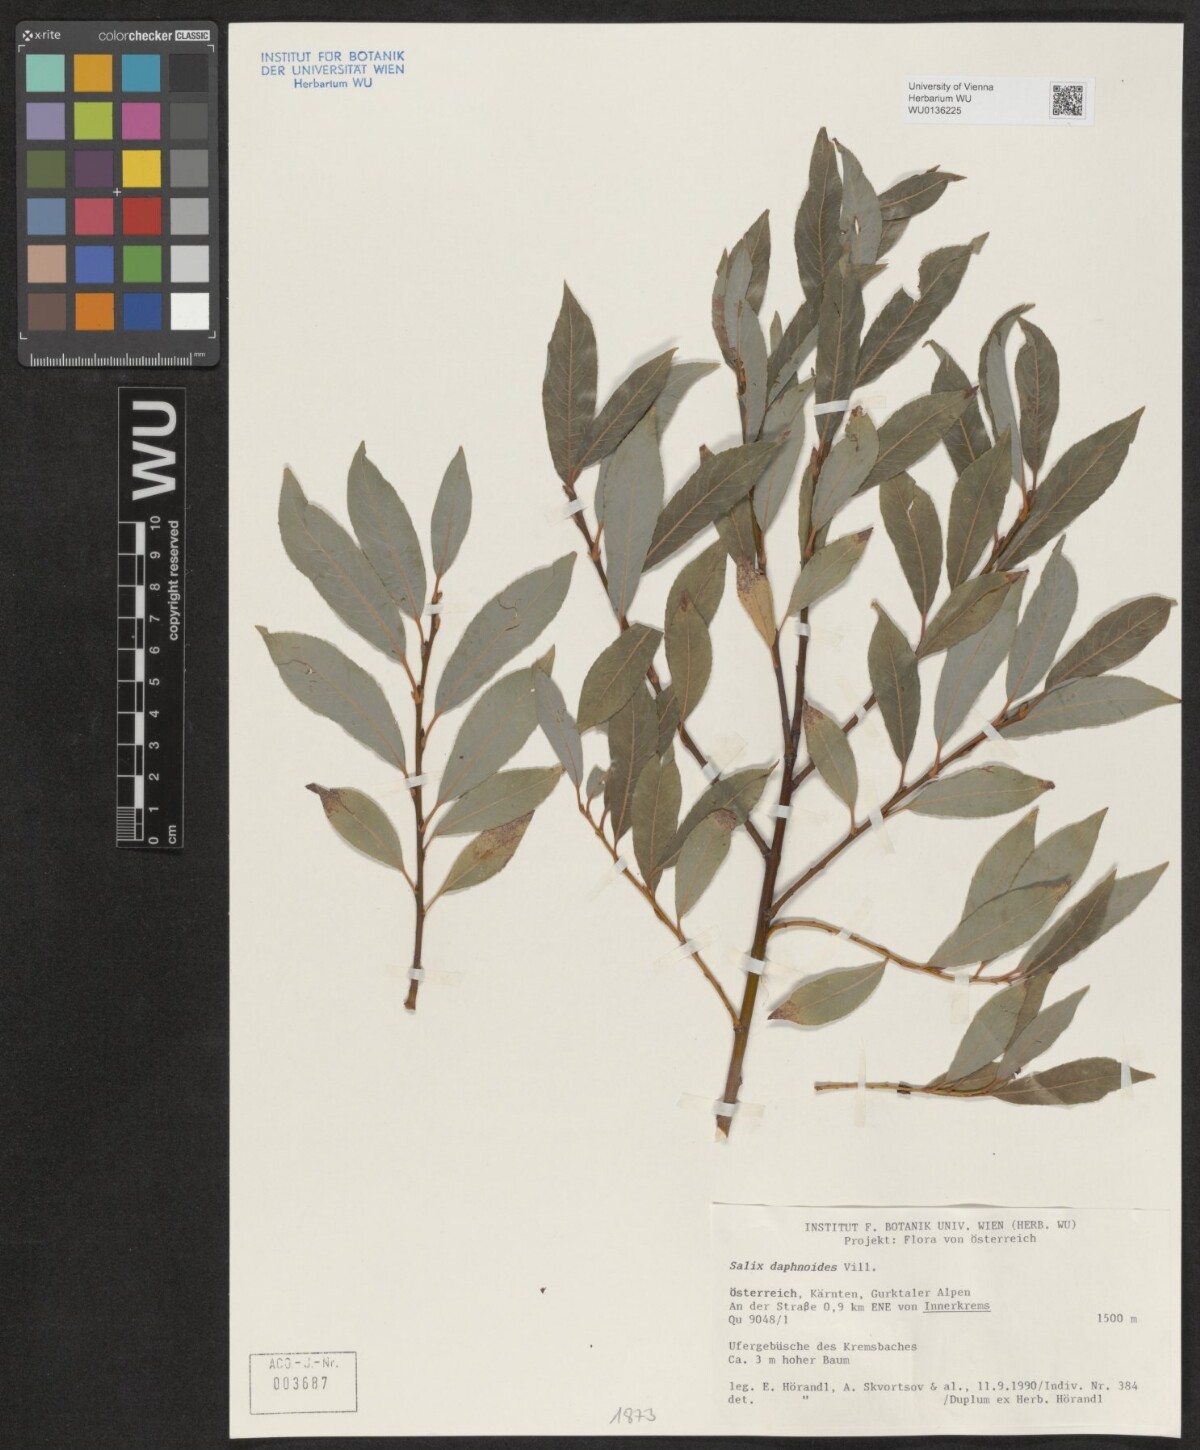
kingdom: Plantae
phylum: Tracheophyta
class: Magnoliopsida
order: Malpighiales
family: Salicaceae
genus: Salix
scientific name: Salix daphnoides
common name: European violet-willow
